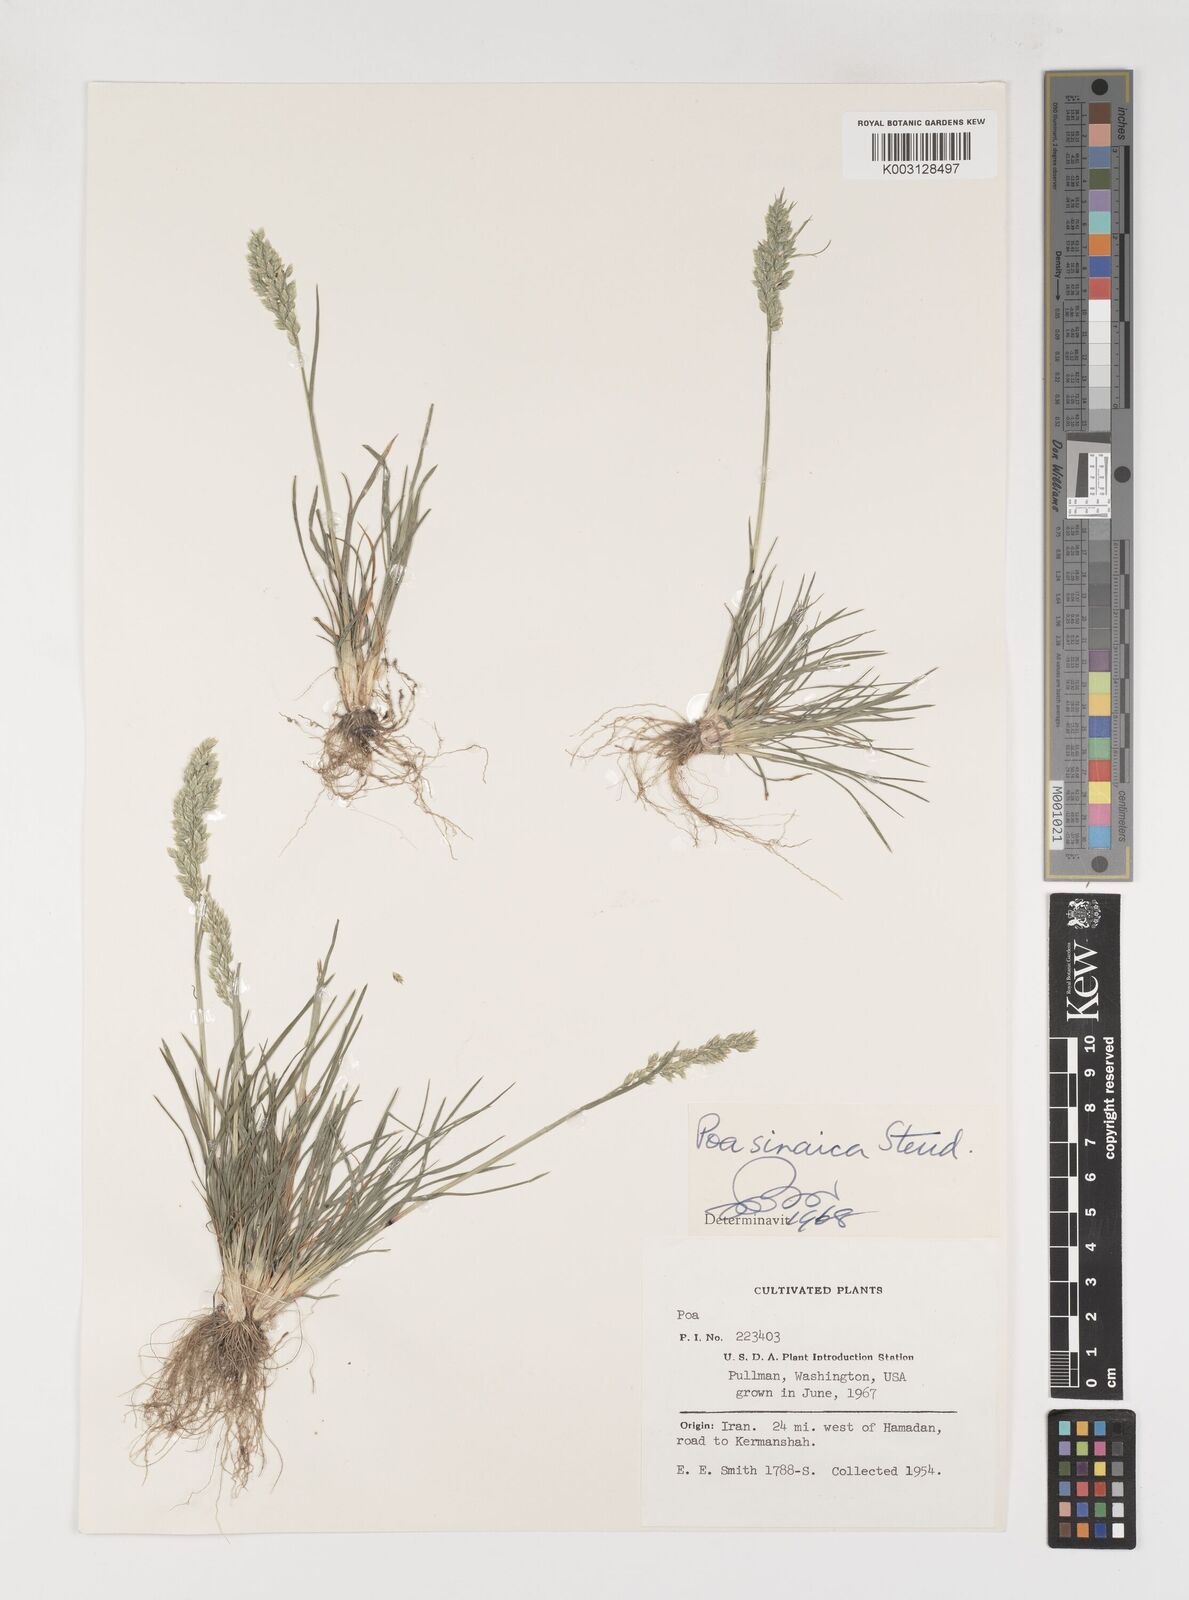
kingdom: Plantae
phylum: Tracheophyta
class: Liliopsida
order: Poales
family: Poaceae
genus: Poa
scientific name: Poa sinaica
